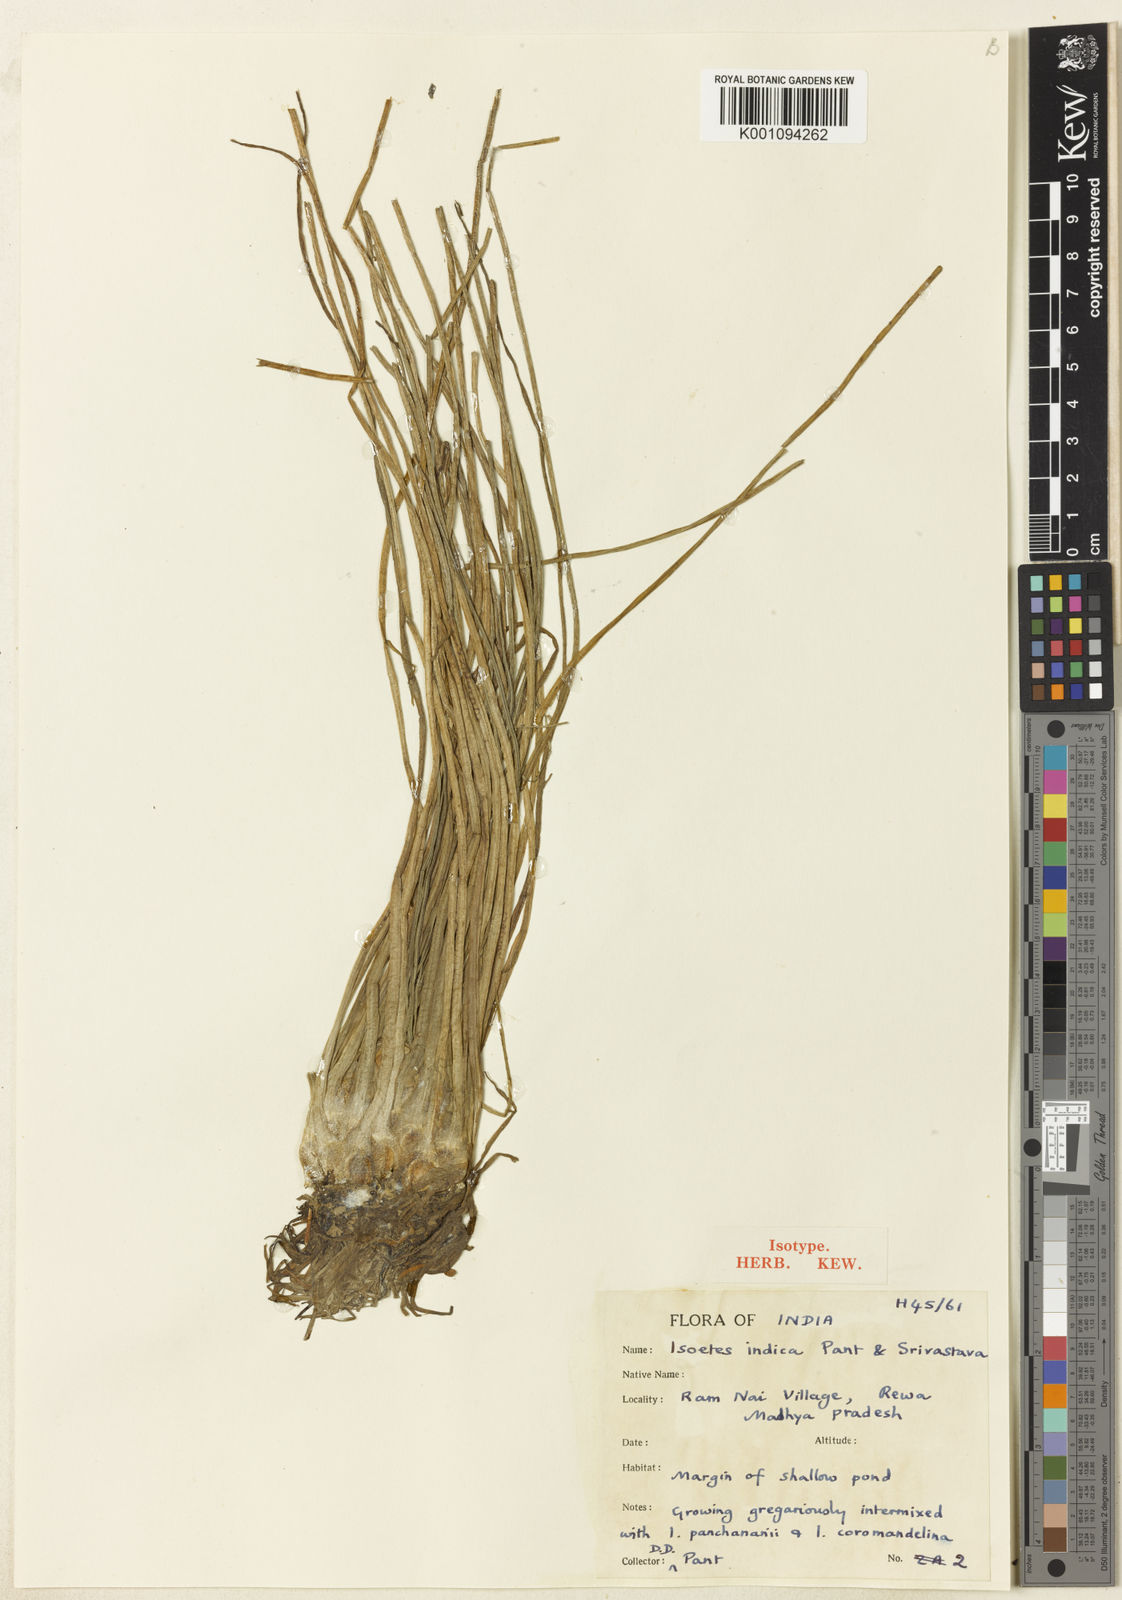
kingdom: Plantae
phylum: Tracheophyta
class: Lycopodiopsida
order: Isoetales
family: Isoetaceae
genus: Isoetes
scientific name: Isoetes coromandelina
